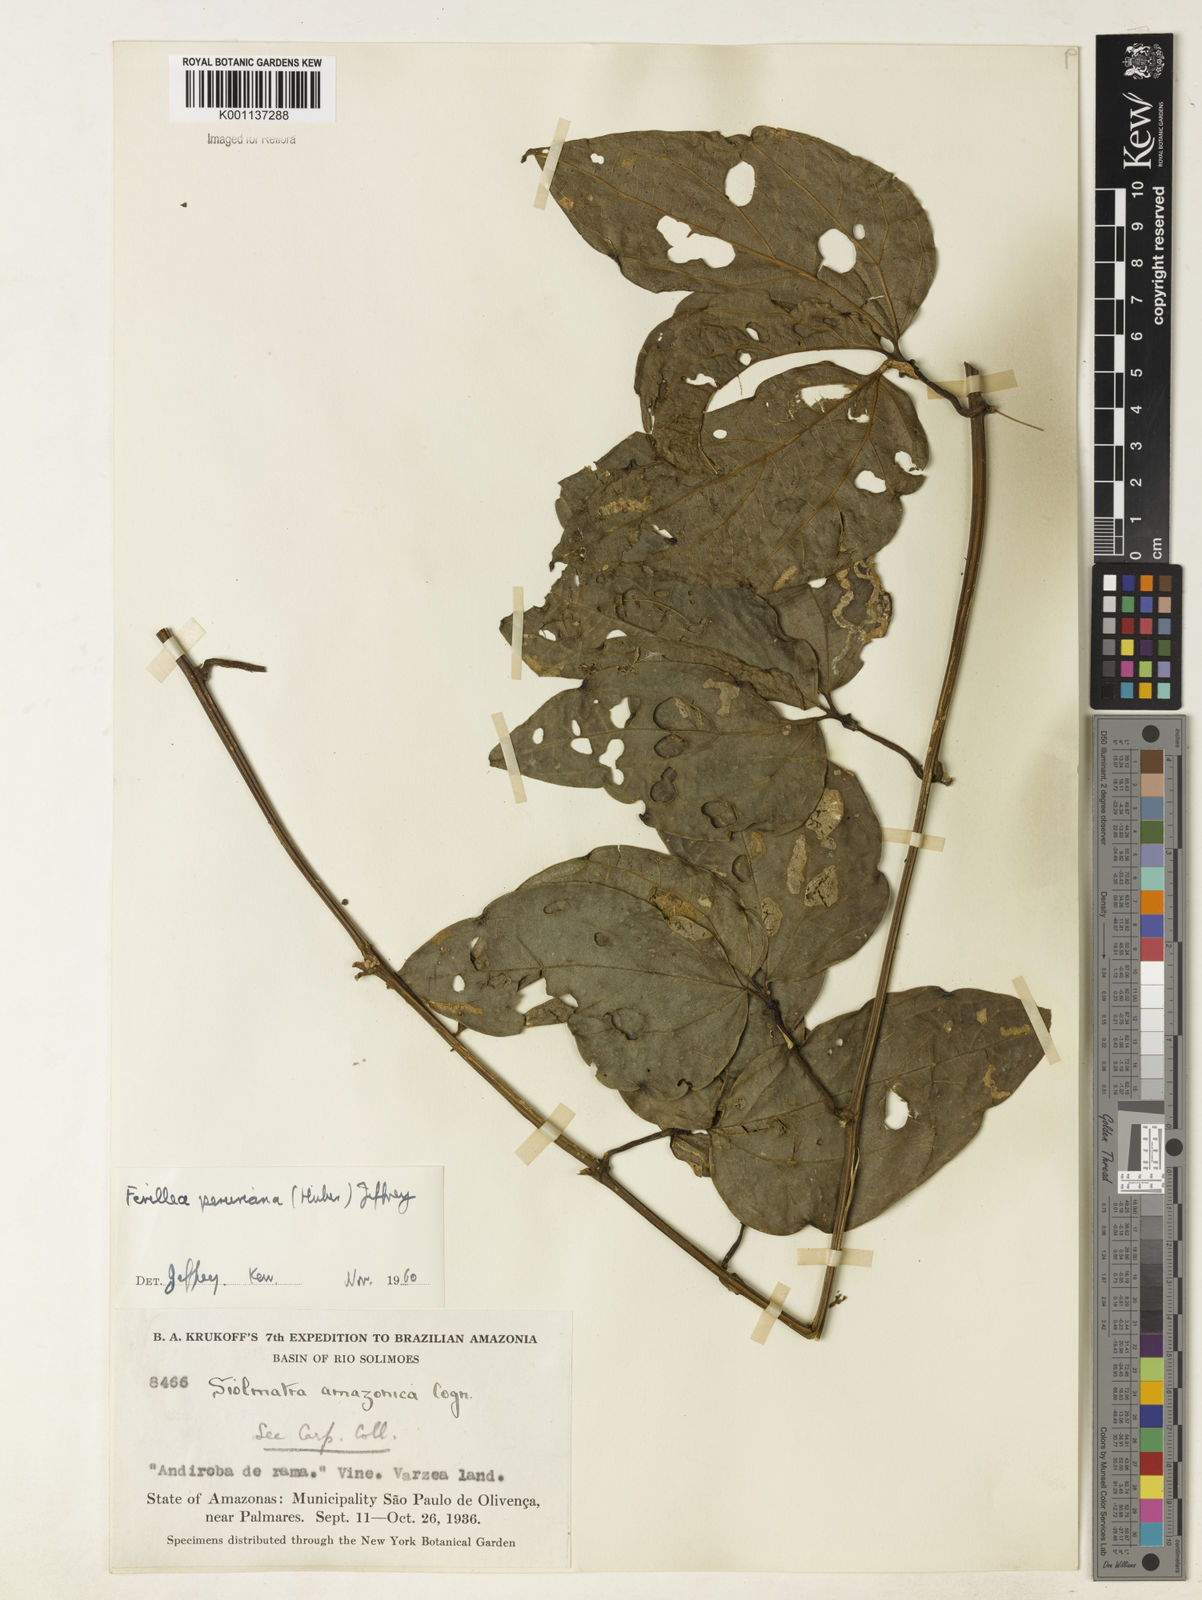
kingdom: Plantae
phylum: Tracheophyta
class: Magnoliopsida
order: Cucurbitales
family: Cucurbitaceae
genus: Fevillea
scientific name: Fevillea pedatifolia
